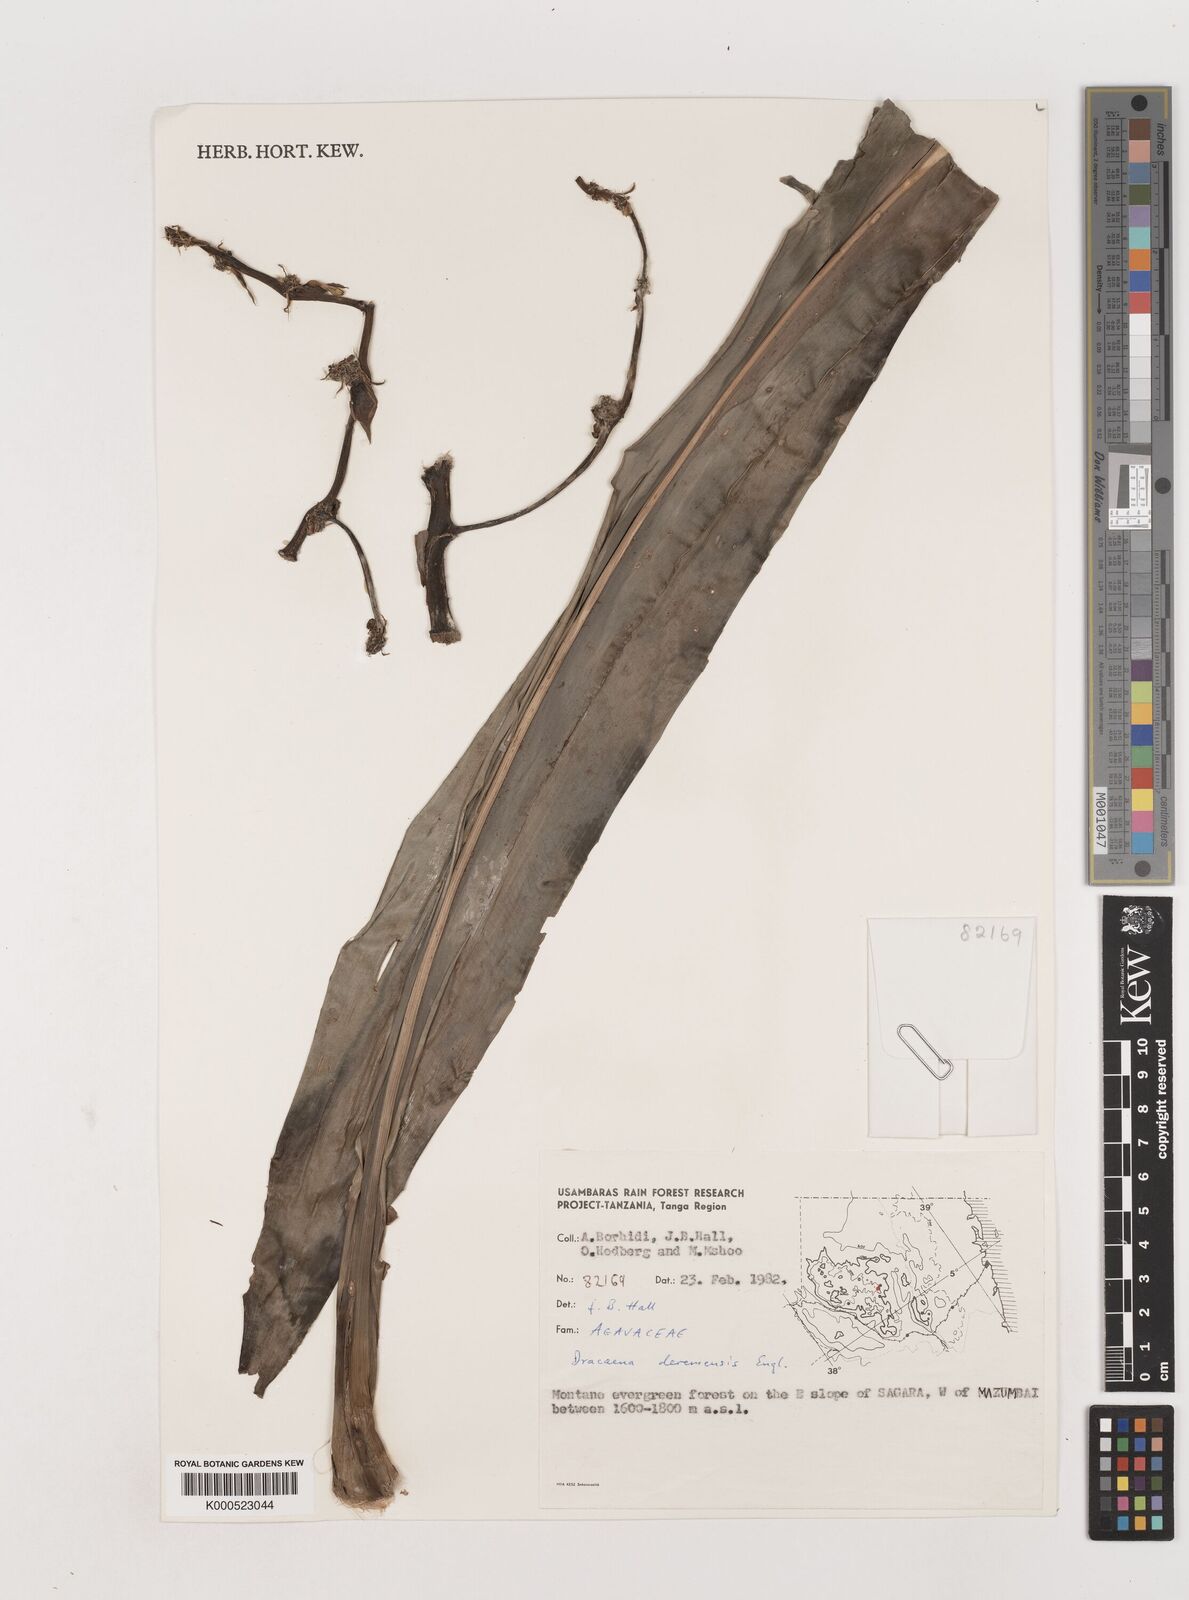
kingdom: Plantae
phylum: Tracheophyta
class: Liliopsida
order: Asparagales
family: Asparagaceae
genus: Dracaena
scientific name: Dracaena fragrans
